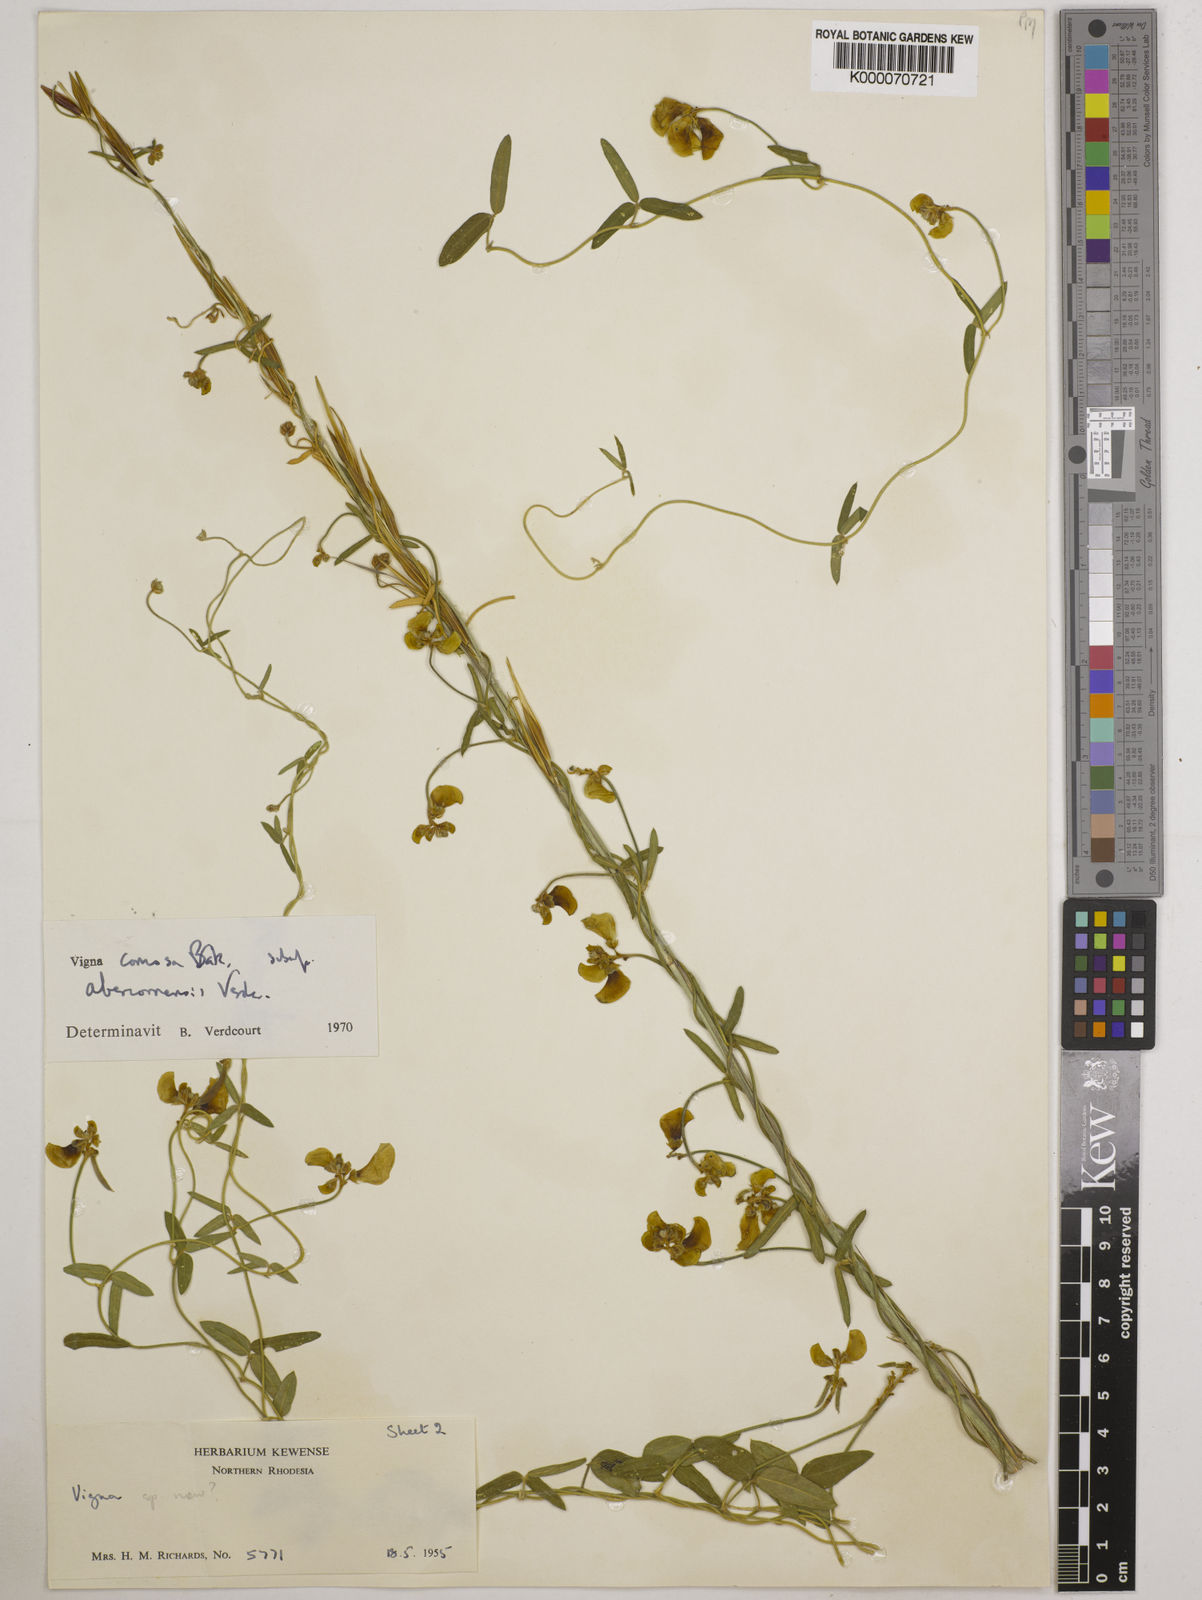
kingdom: Plantae
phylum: Tracheophyta
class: Magnoliopsida
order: Fabales
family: Fabaceae
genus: Vigna
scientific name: Vigna comosa
